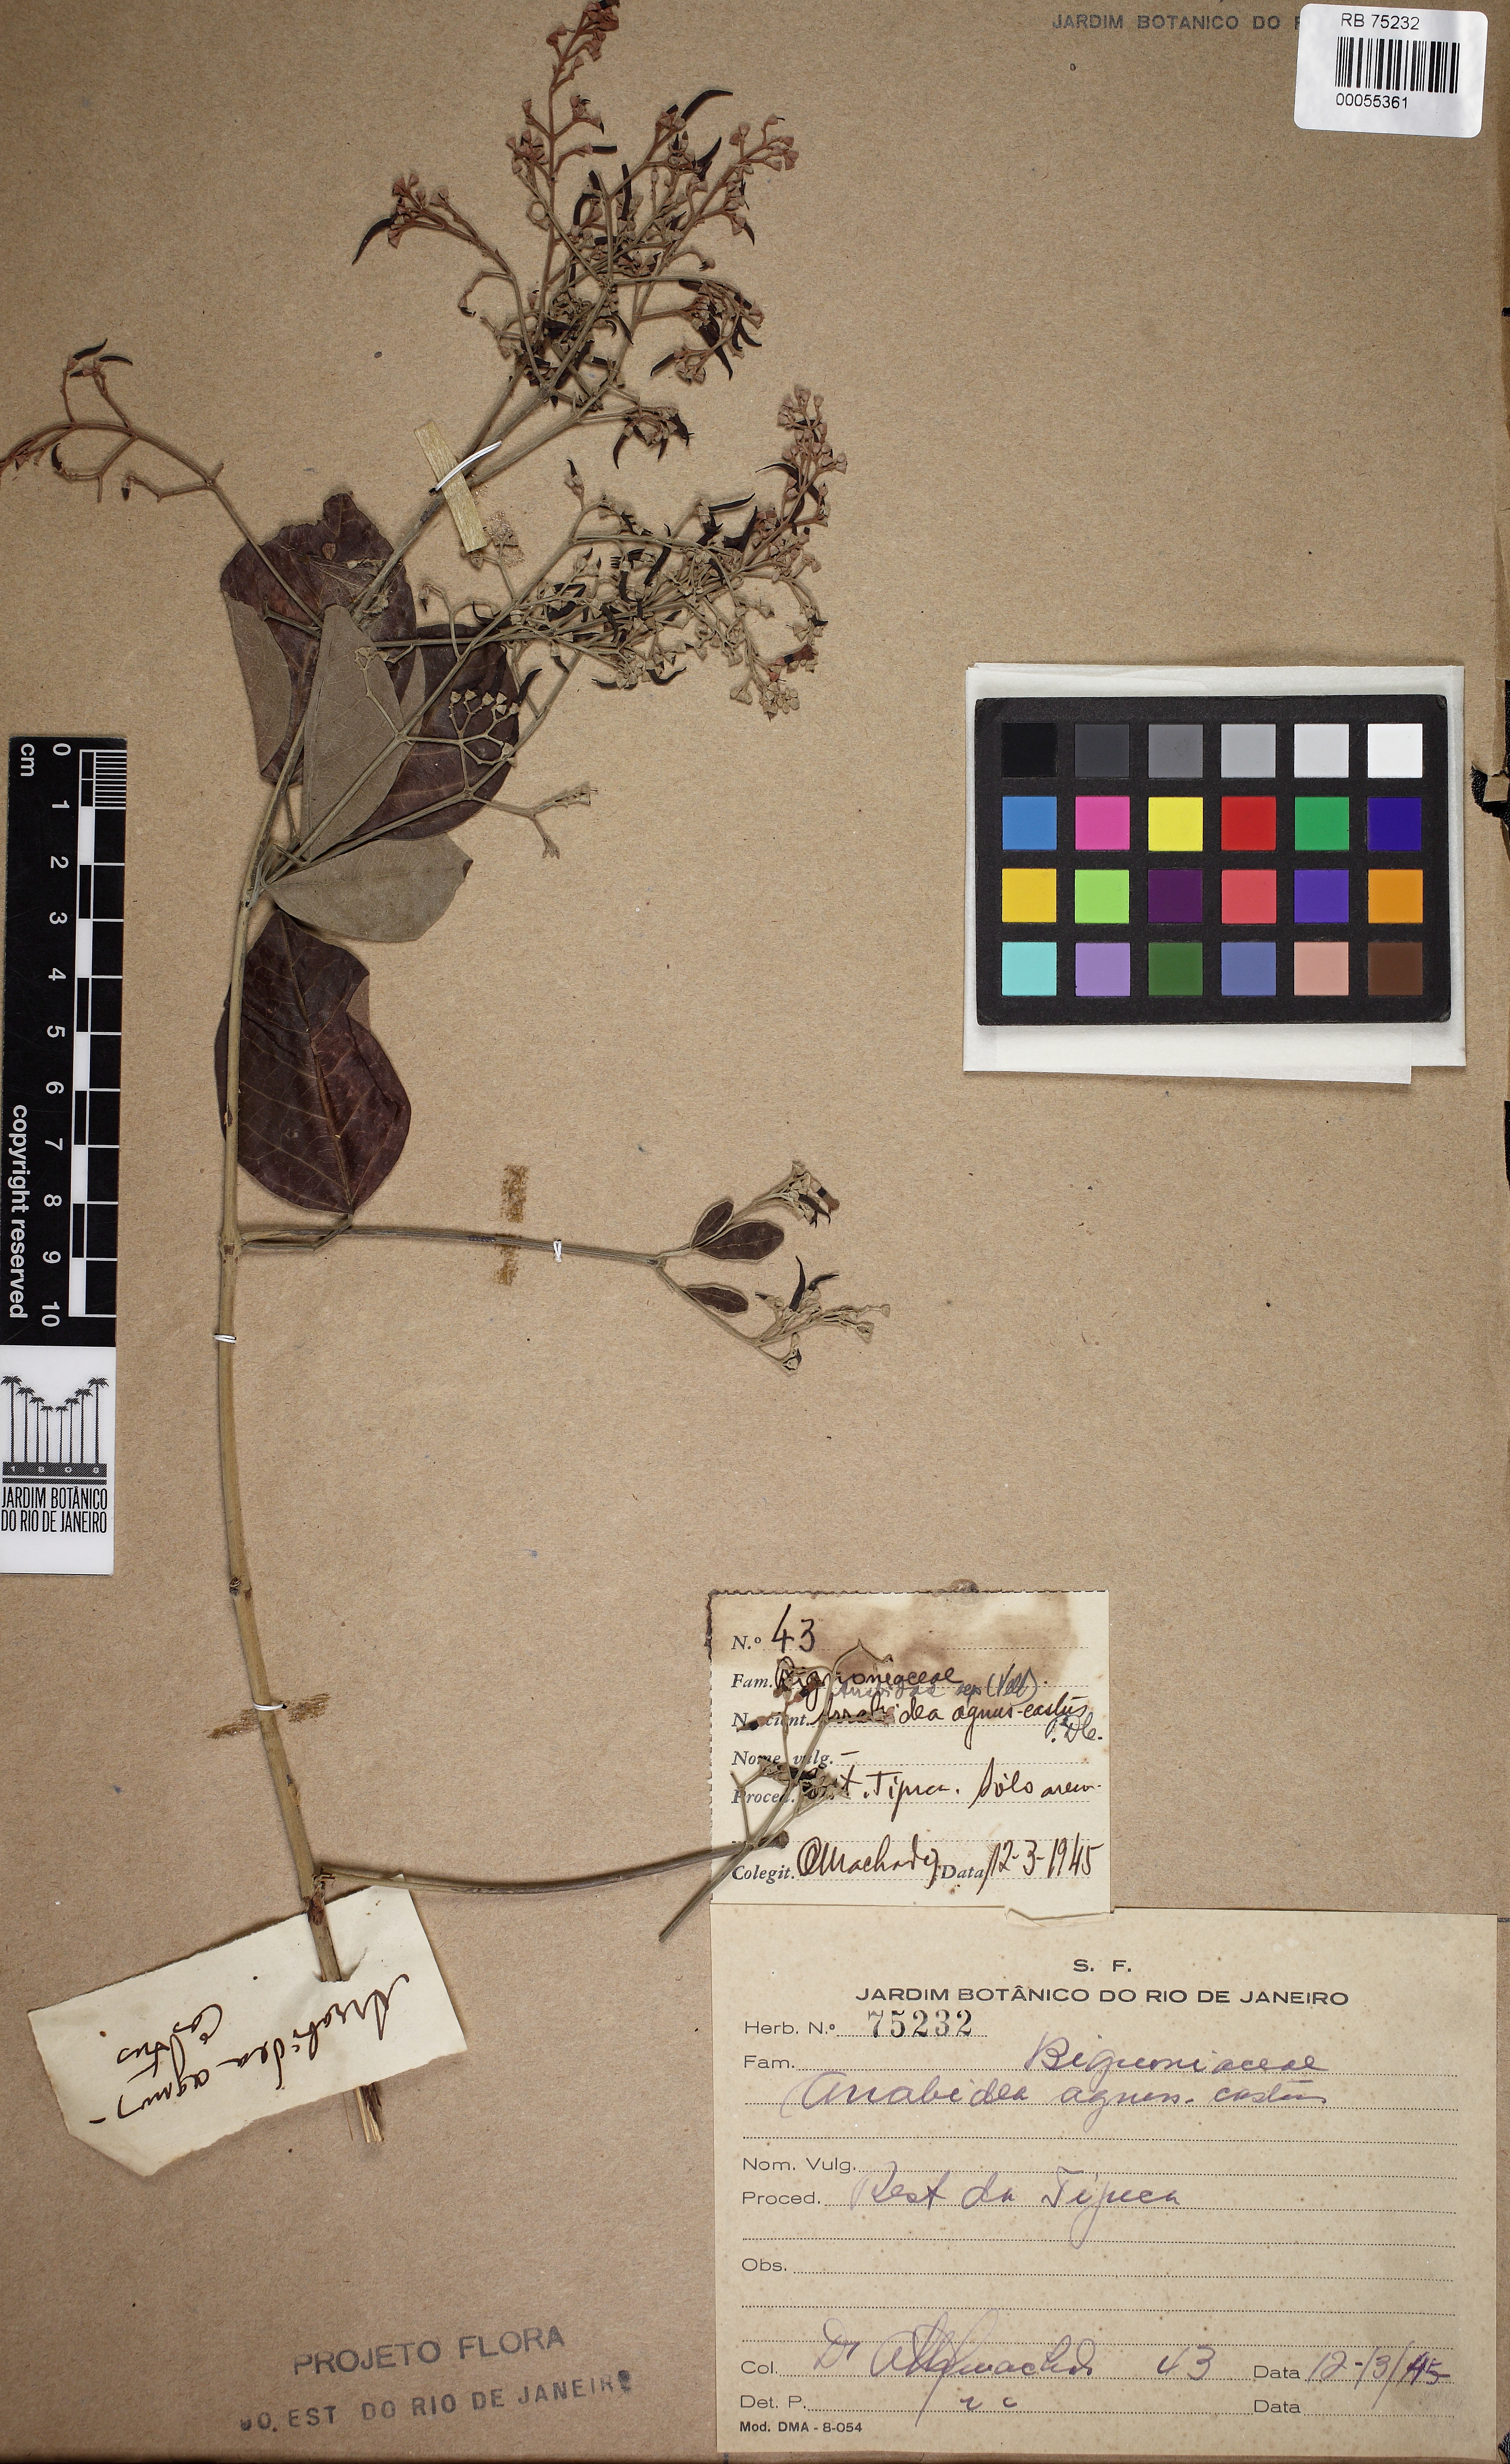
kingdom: Plantae
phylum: Tracheophyta
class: Magnoliopsida
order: Lamiales
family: Bignoniaceae
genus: Fridericia
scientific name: Fridericia rego
